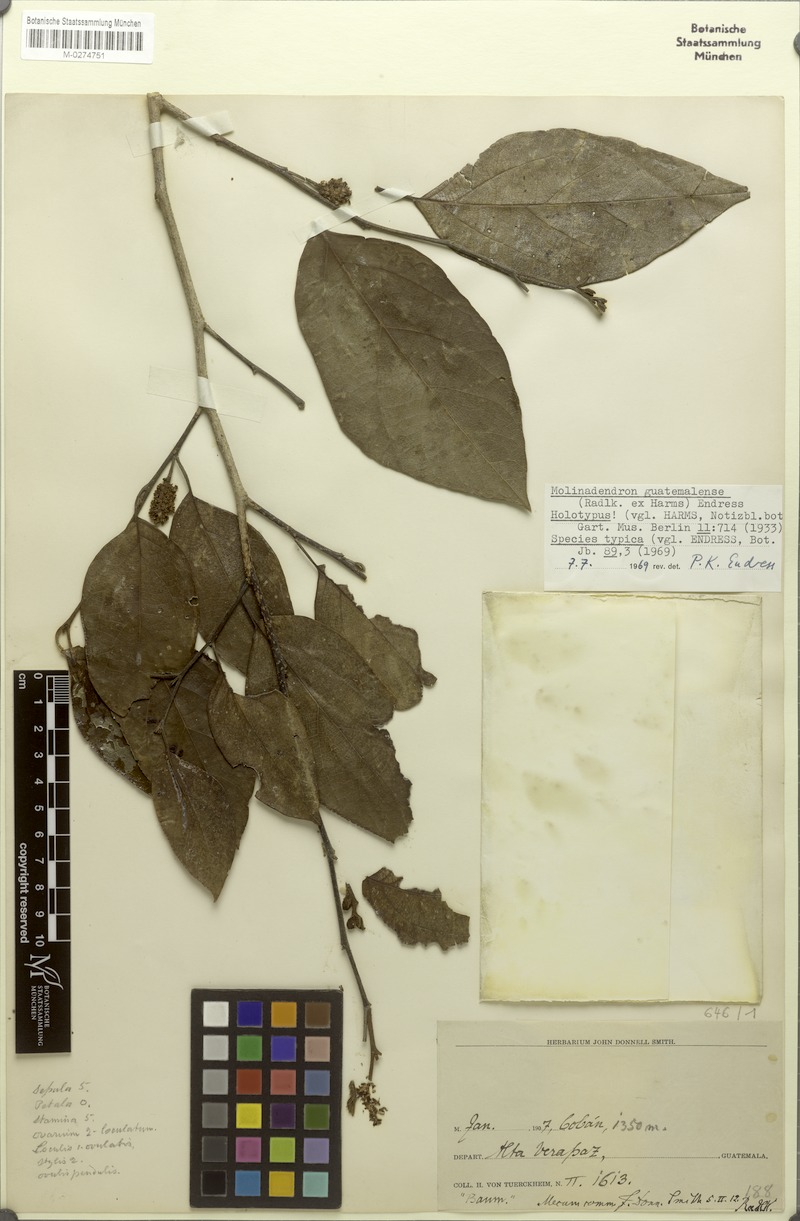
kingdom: Plantae
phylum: Tracheophyta
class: Magnoliopsida
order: Saxifragales
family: Hamamelidaceae
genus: Molinadendron
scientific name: Molinadendron guatemalense
